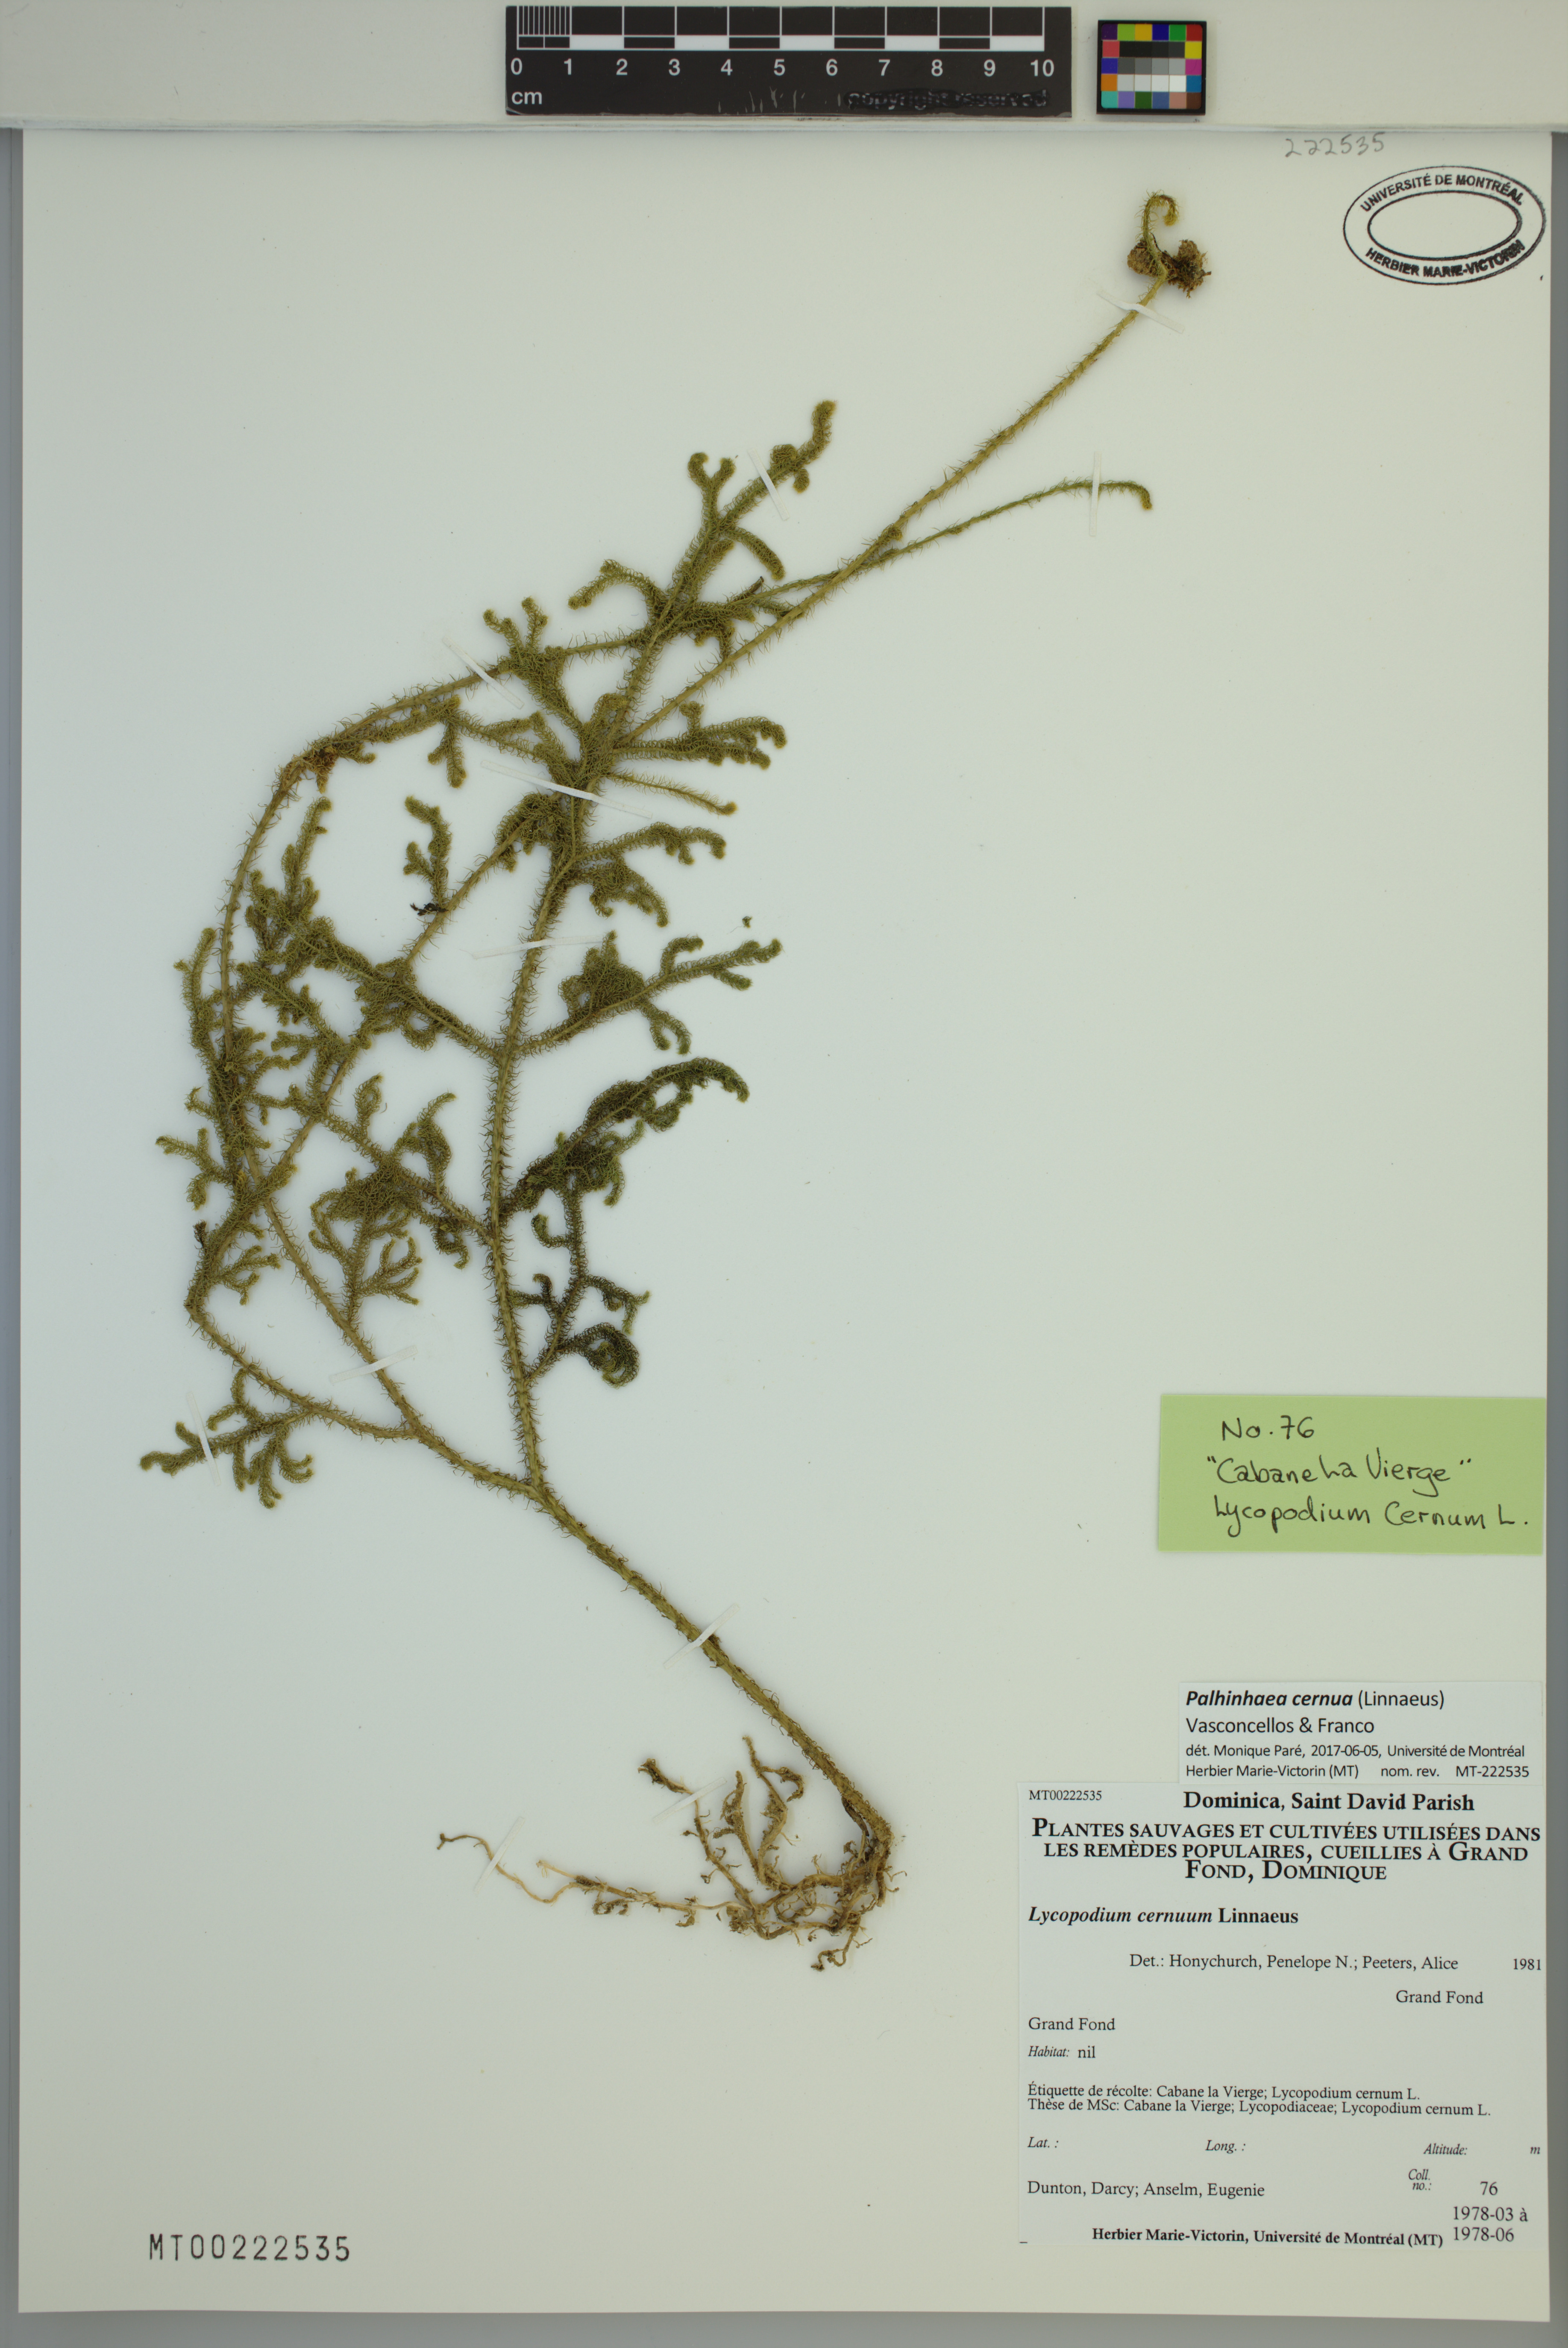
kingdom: Plantae
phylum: Tracheophyta
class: Lycopodiopsida
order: Lycopodiales
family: Lycopodiaceae
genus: Palhinhaea
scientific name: Palhinhaea cernua
